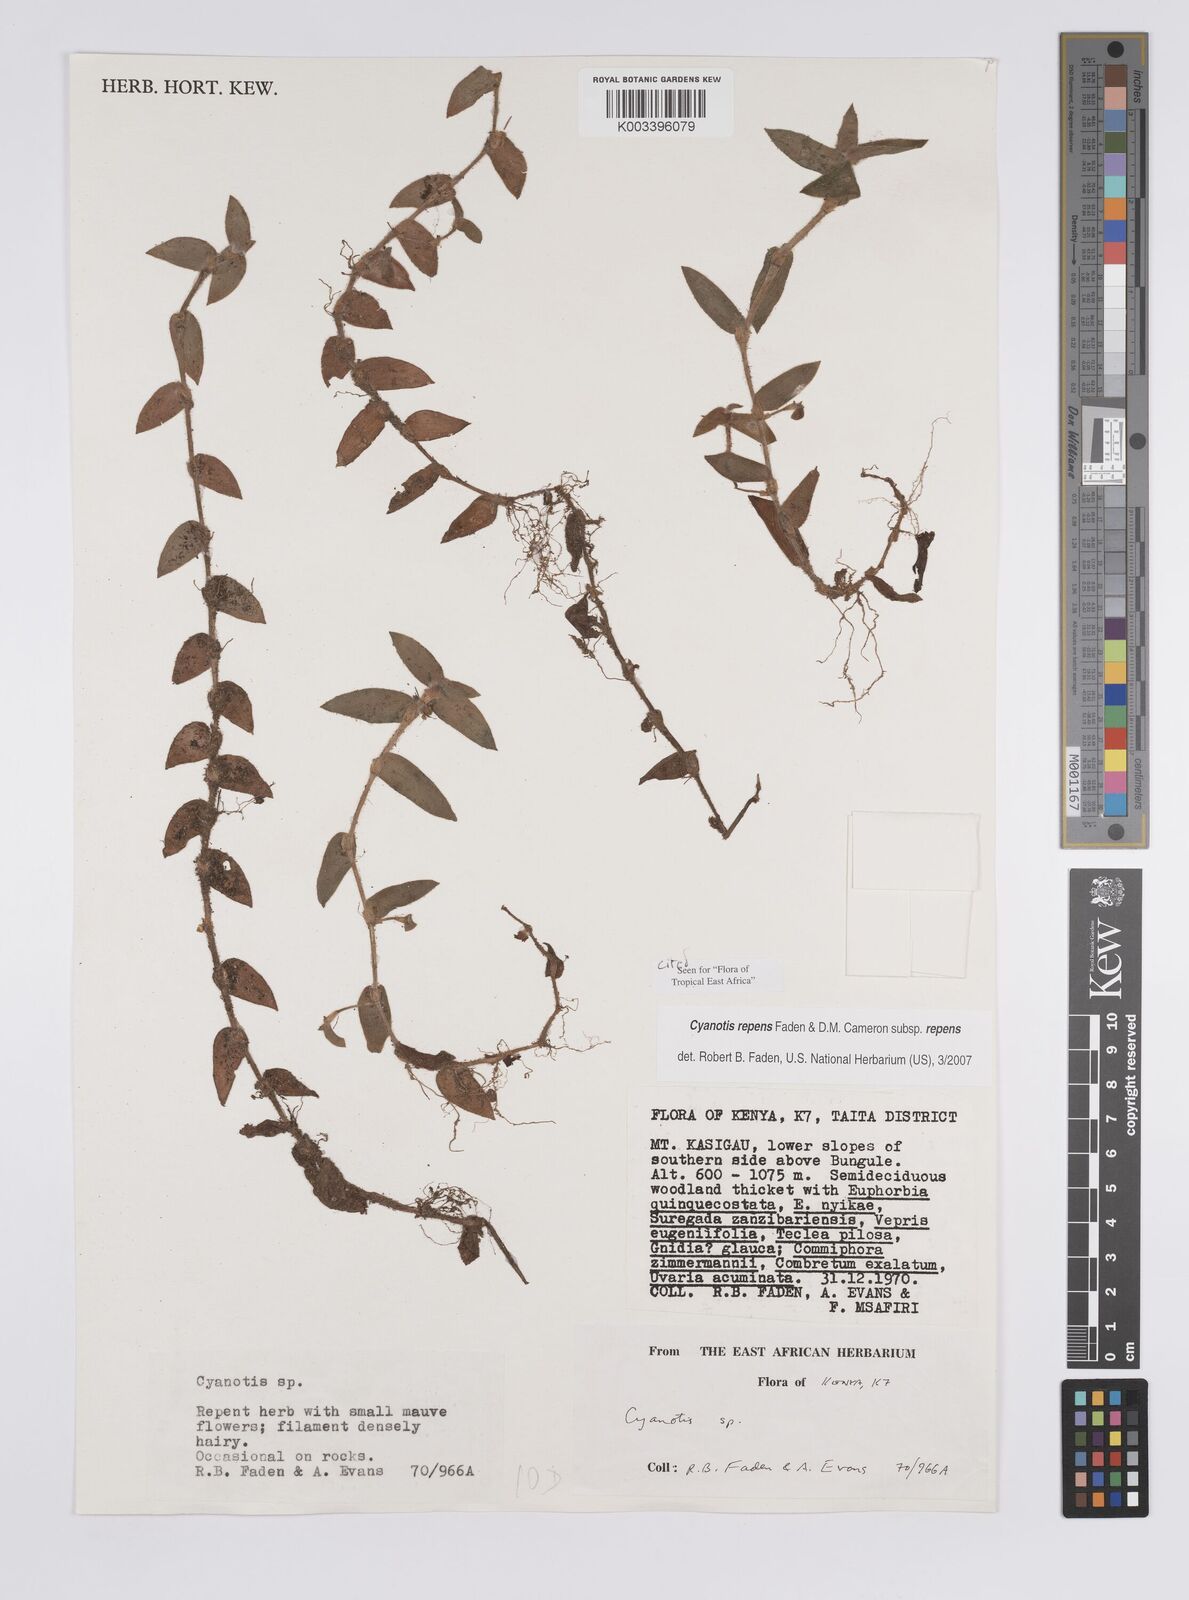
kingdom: Plantae
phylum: Tracheophyta
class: Liliopsida
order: Commelinales
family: Commelinaceae
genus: Cyanotis
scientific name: Cyanotis repens
